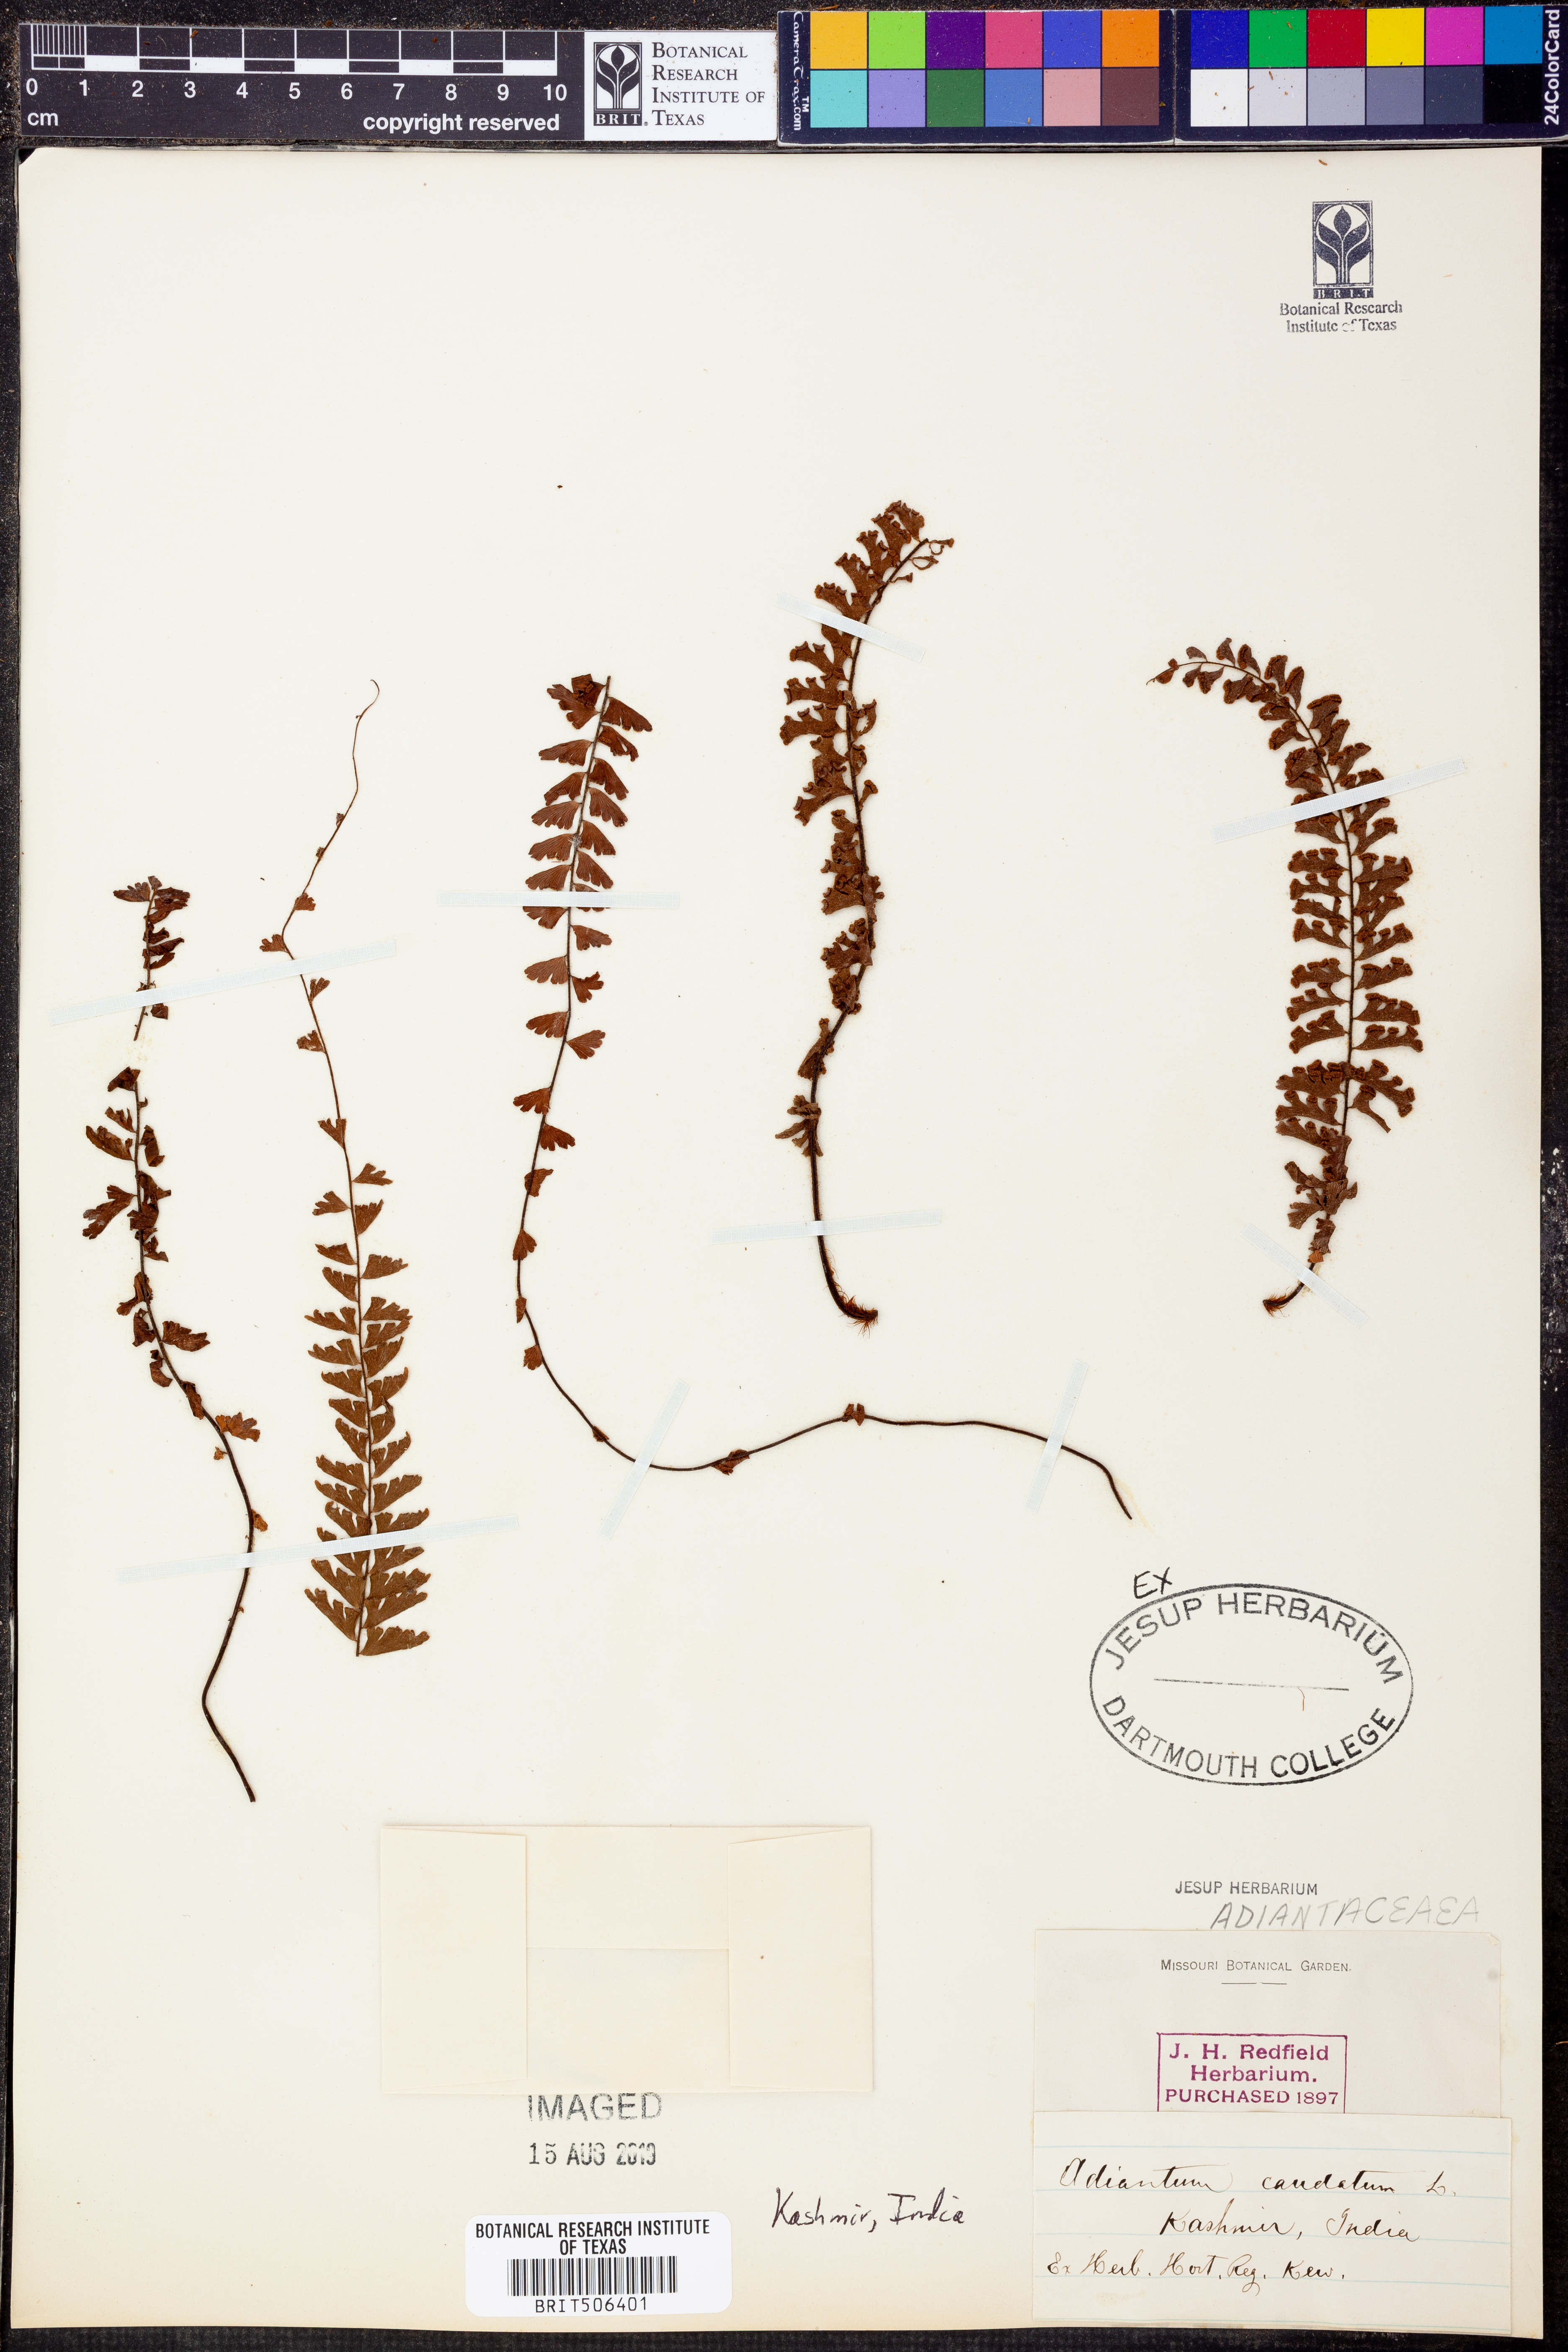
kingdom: Plantae
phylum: Tracheophyta
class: Polypodiopsida
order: Polypodiales
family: Pteridaceae
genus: Adiantum
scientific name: Adiantum caudatum
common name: Tailed maidenhair
